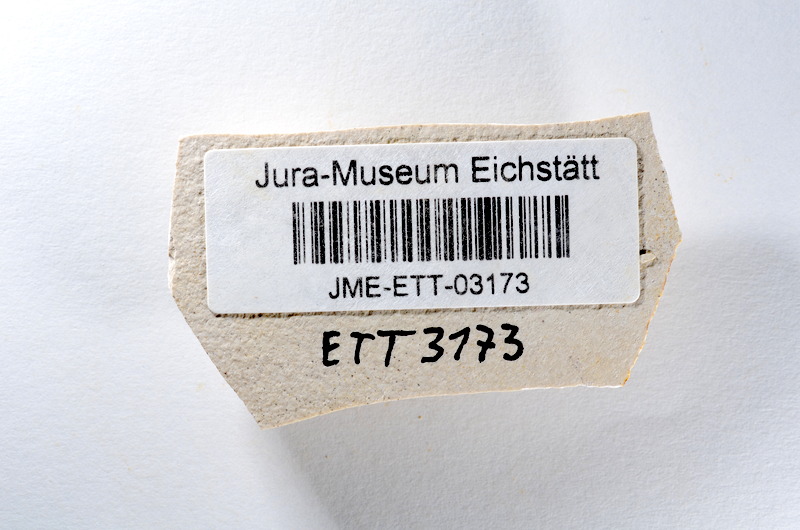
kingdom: Animalia
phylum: Chordata
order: Salmoniformes
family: Orthogonikleithridae
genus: Orthogonikleithrus
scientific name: Orthogonikleithrus hoelli
